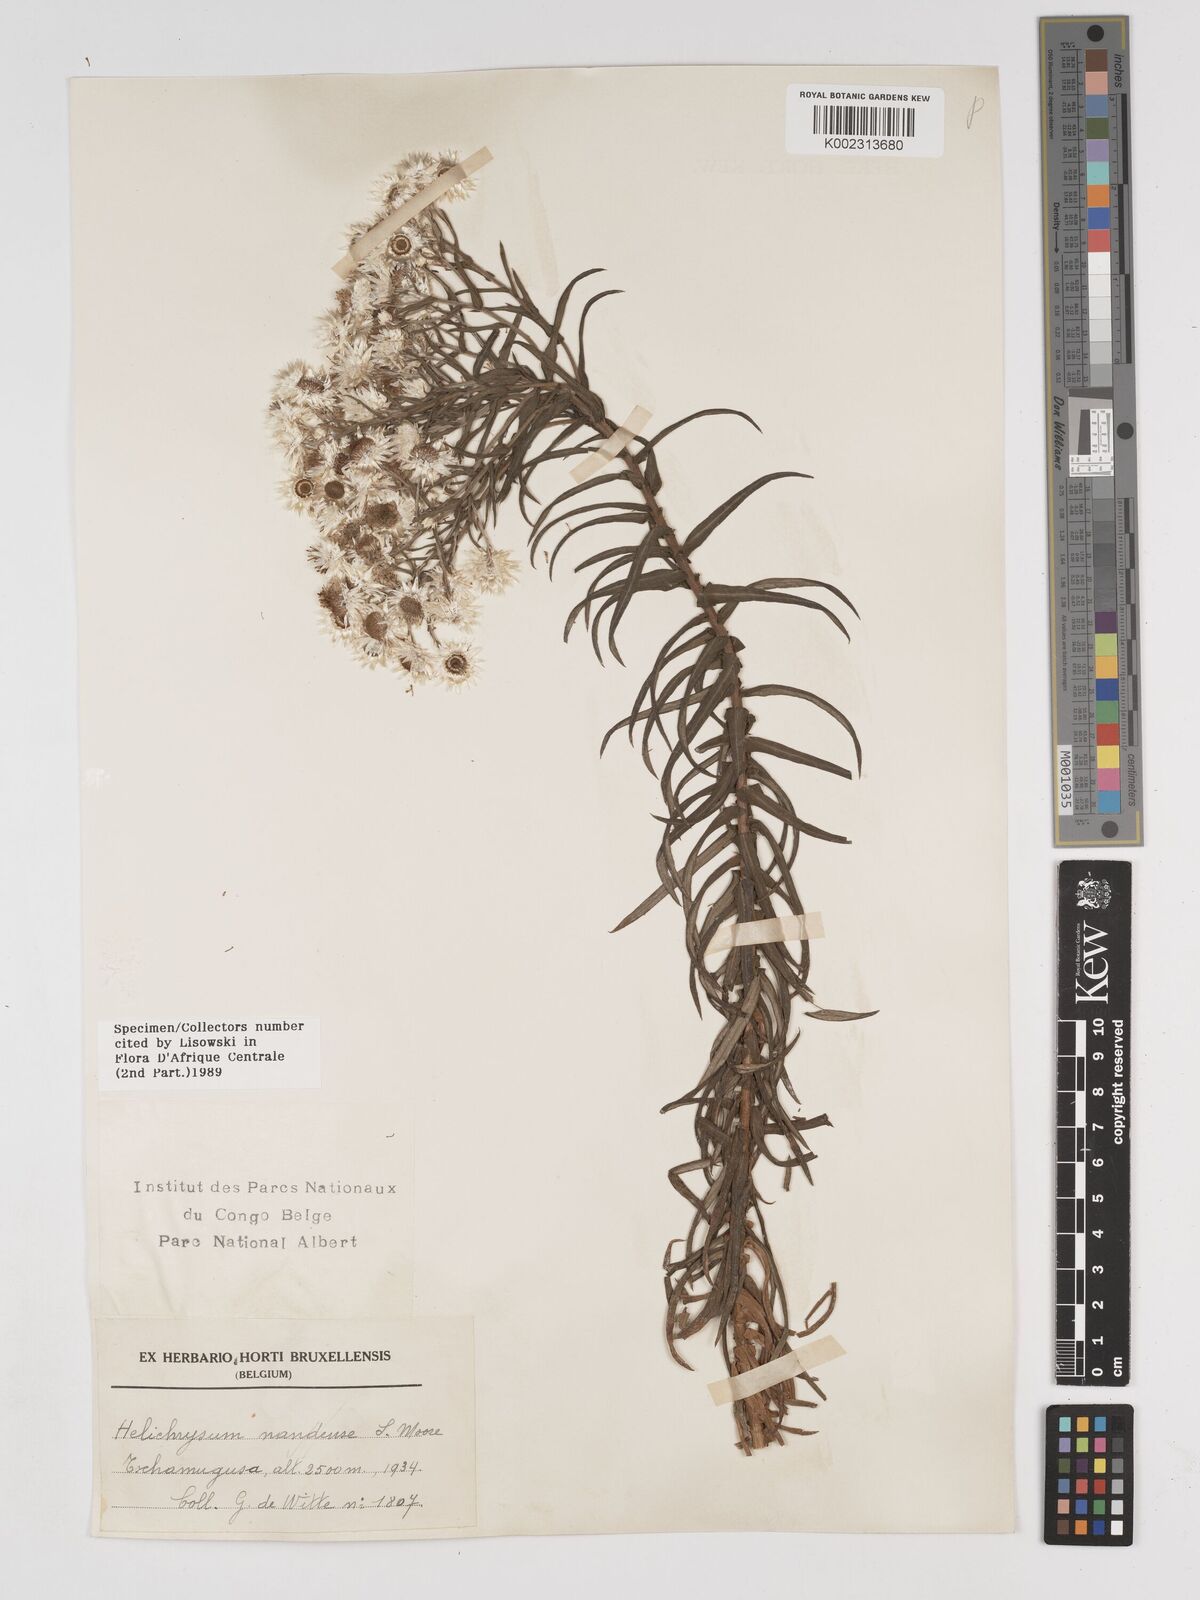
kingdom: Plantae
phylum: Tracheophyta
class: Magnoliopsida
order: Asterales
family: Asteraceae
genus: Helichrysum
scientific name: Helichrysum argyranthum
